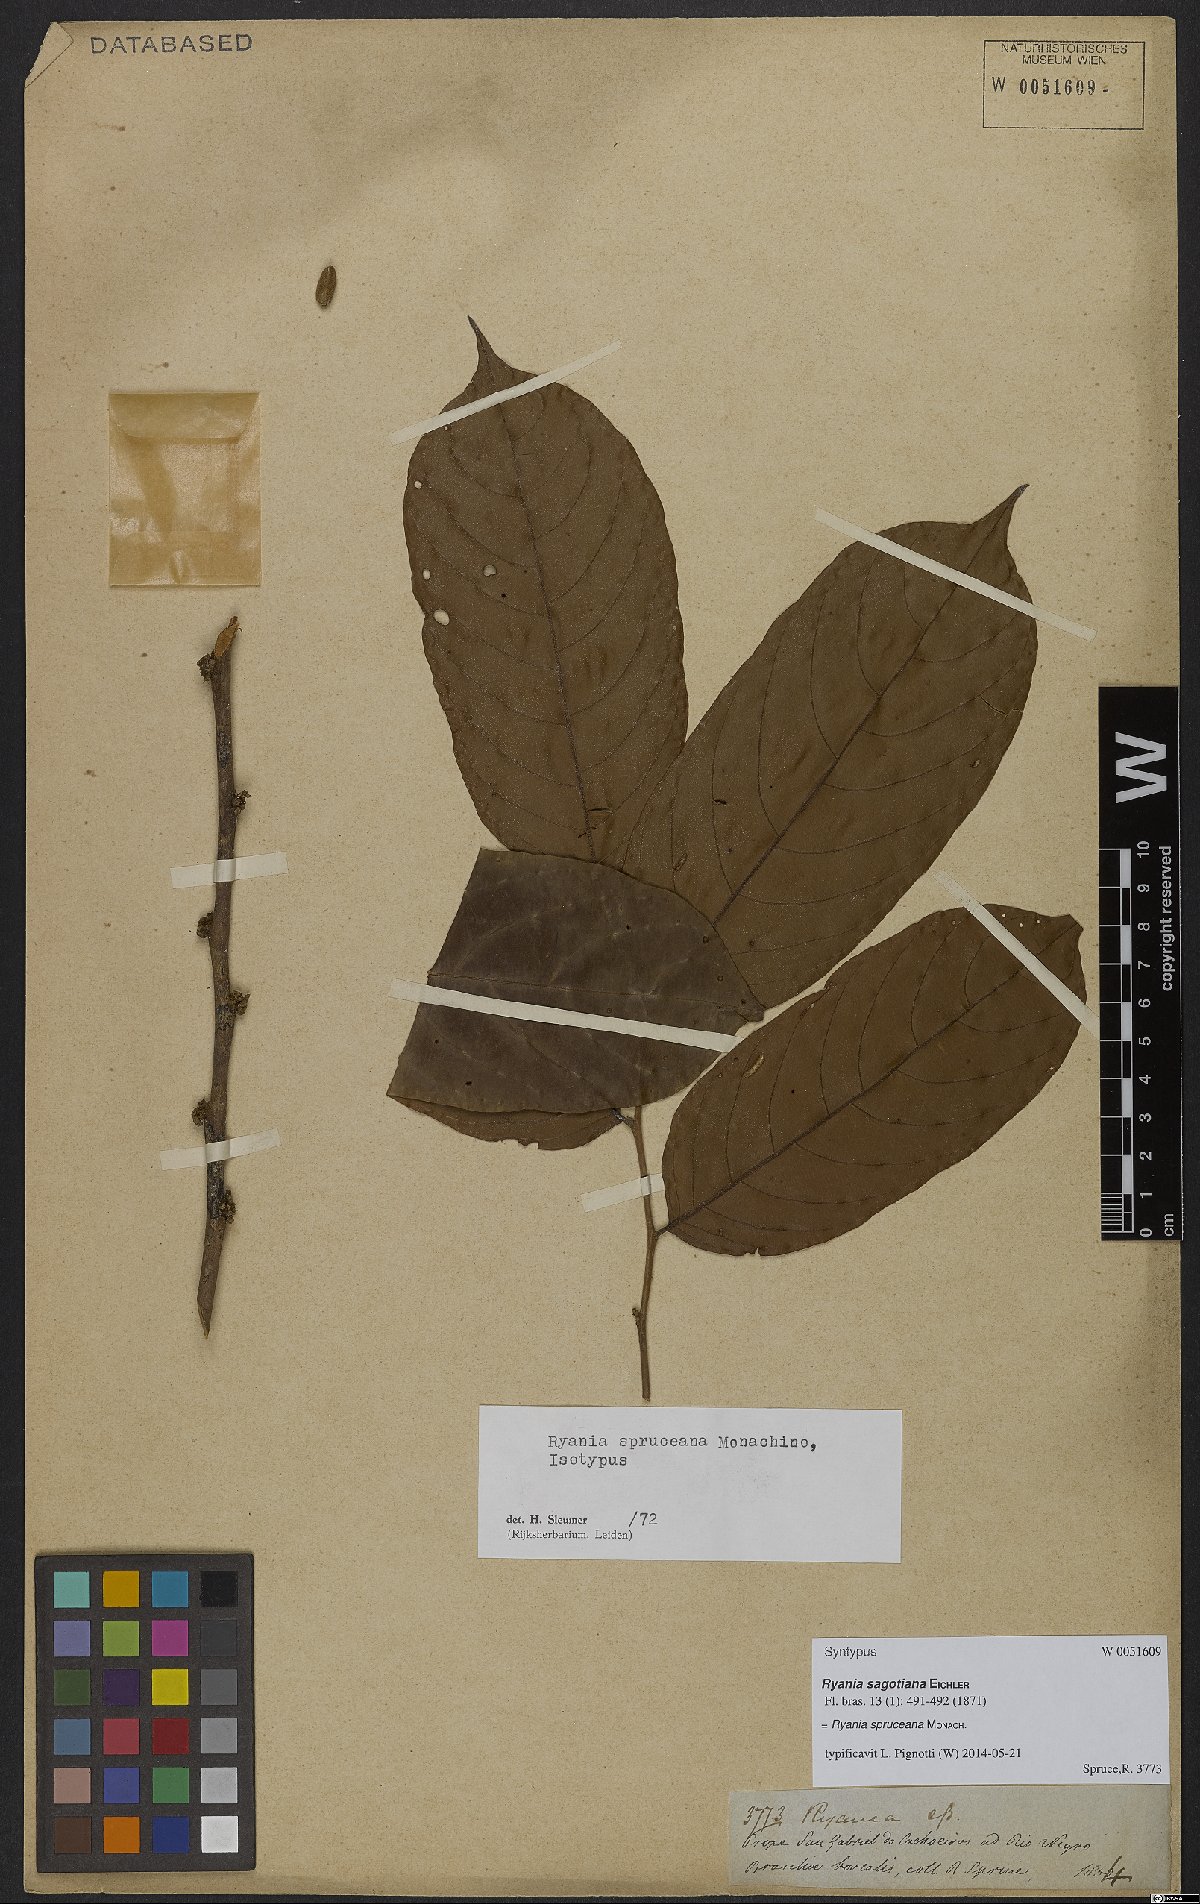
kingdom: Plantae
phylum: Tracheophyta
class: Magnoliopsida
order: Malpighiales
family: Salicaceae
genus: Ryania
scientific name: Ryania spruceana
